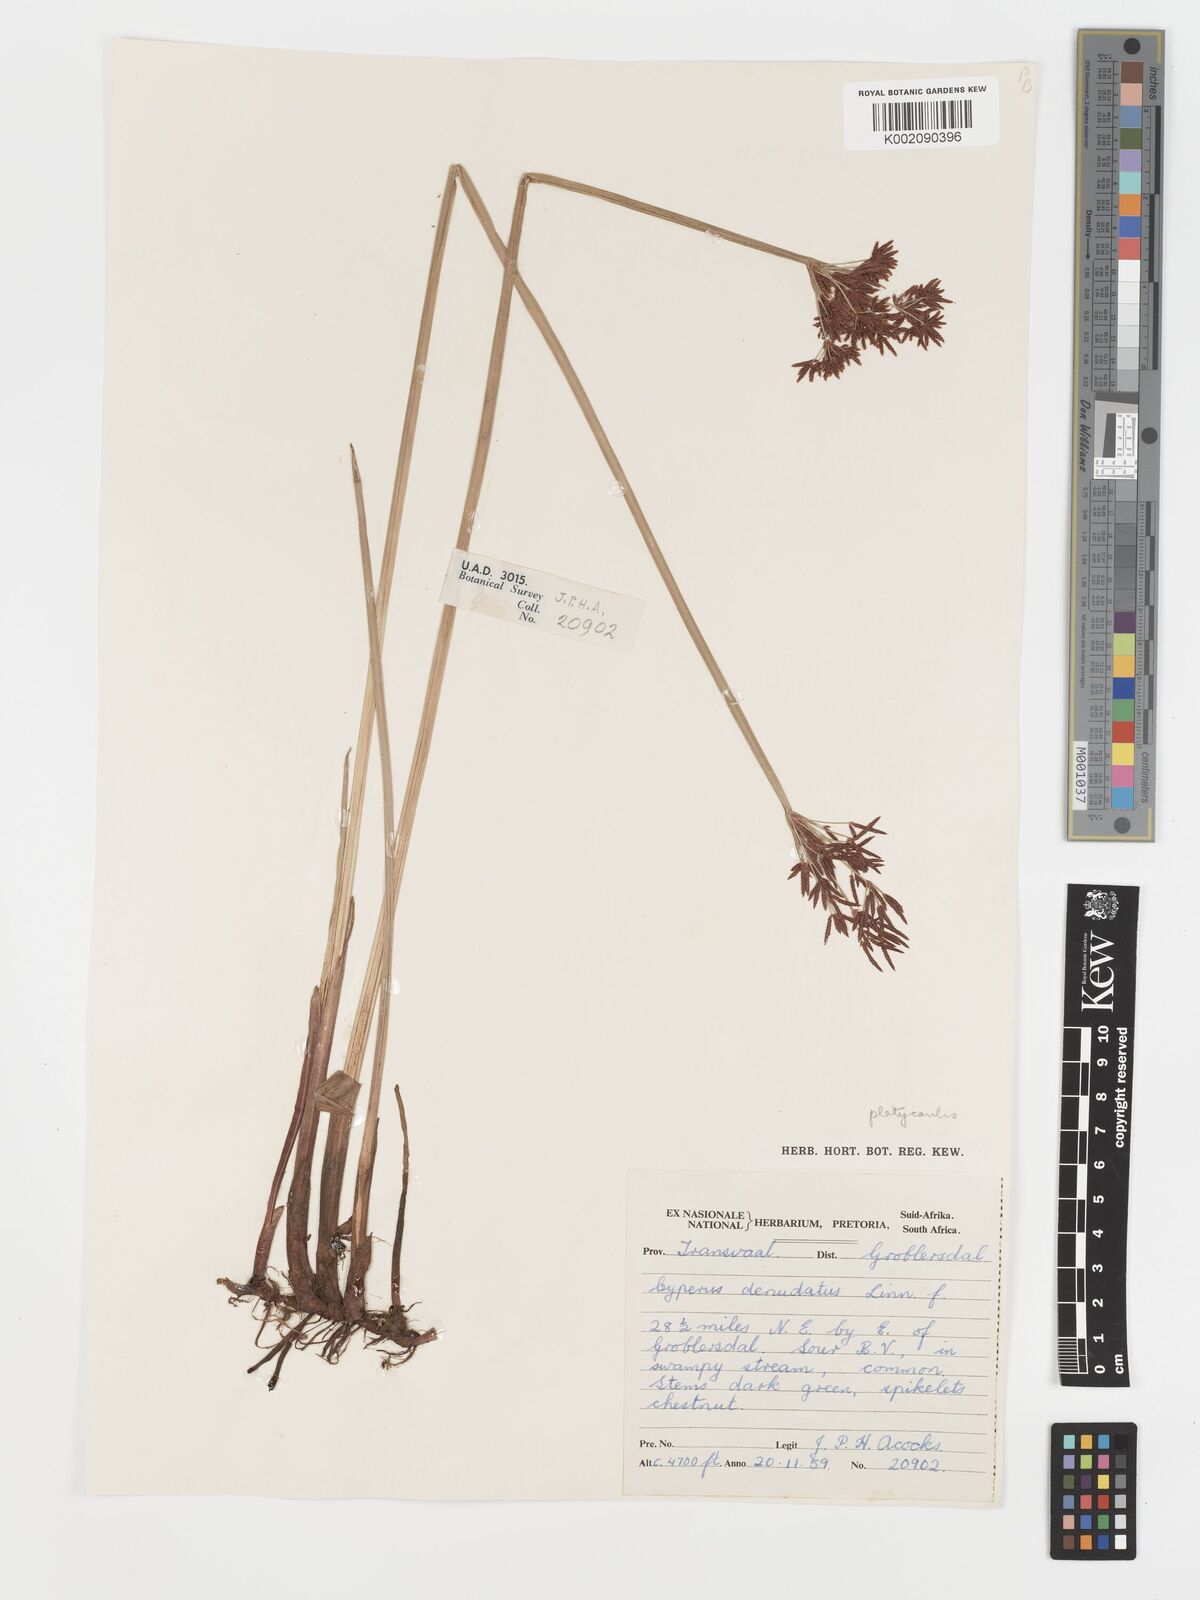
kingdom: Plantae
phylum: Tracheophyta
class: Liliopsida
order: Poales
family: Cyperaceae
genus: Cyperus
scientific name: Cyperus platycaulis
